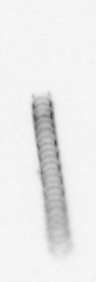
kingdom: Chromista
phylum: Ochrophyta
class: Bacillariophyceae
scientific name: Bacillariophyceae
